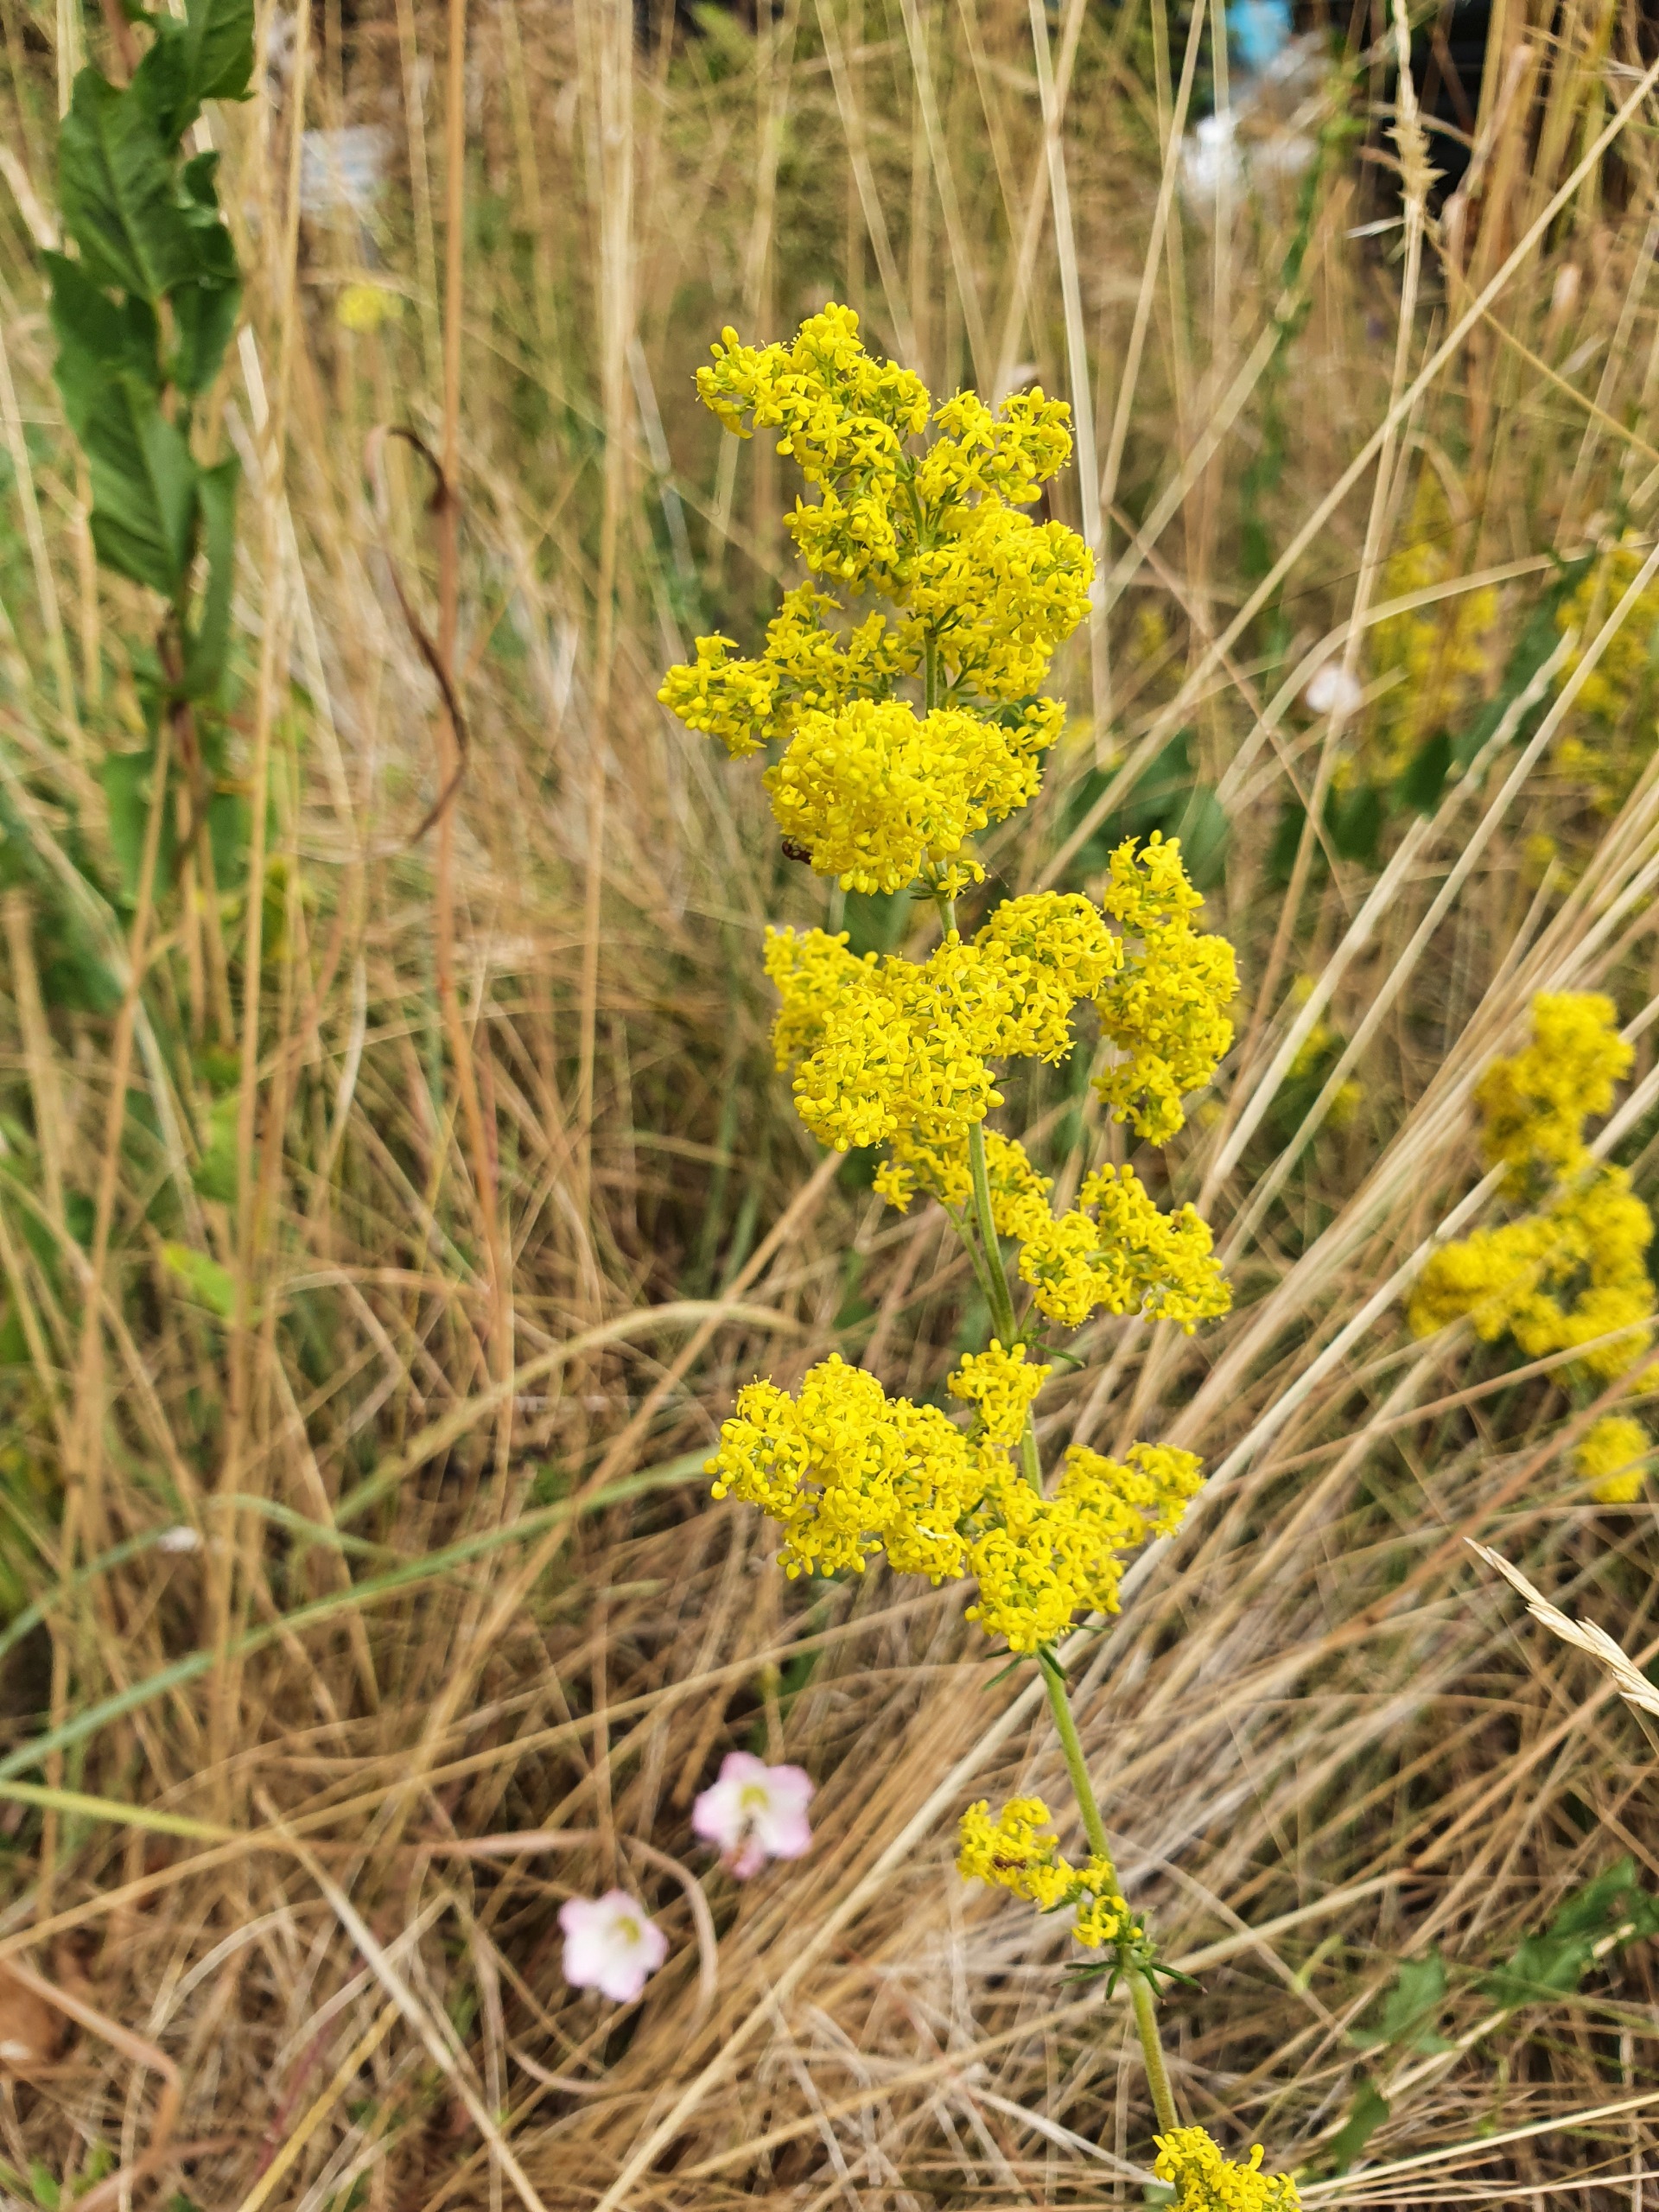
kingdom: Plantae
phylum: Tracheophyta
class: Magnoliopsida
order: Gentianales
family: Rubiaceae
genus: Galium
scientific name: Galium verum
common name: Gul snerre
